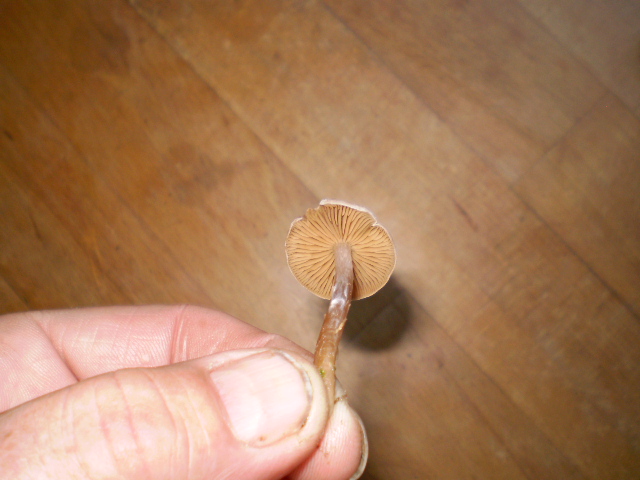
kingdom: Fungi
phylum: Basidiomycota
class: Agaricomycetes
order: Agaricales
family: Cortinariaceae
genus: Cortinarius
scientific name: Cortinarius hemitrichus
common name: hvidfnugget slørhat
